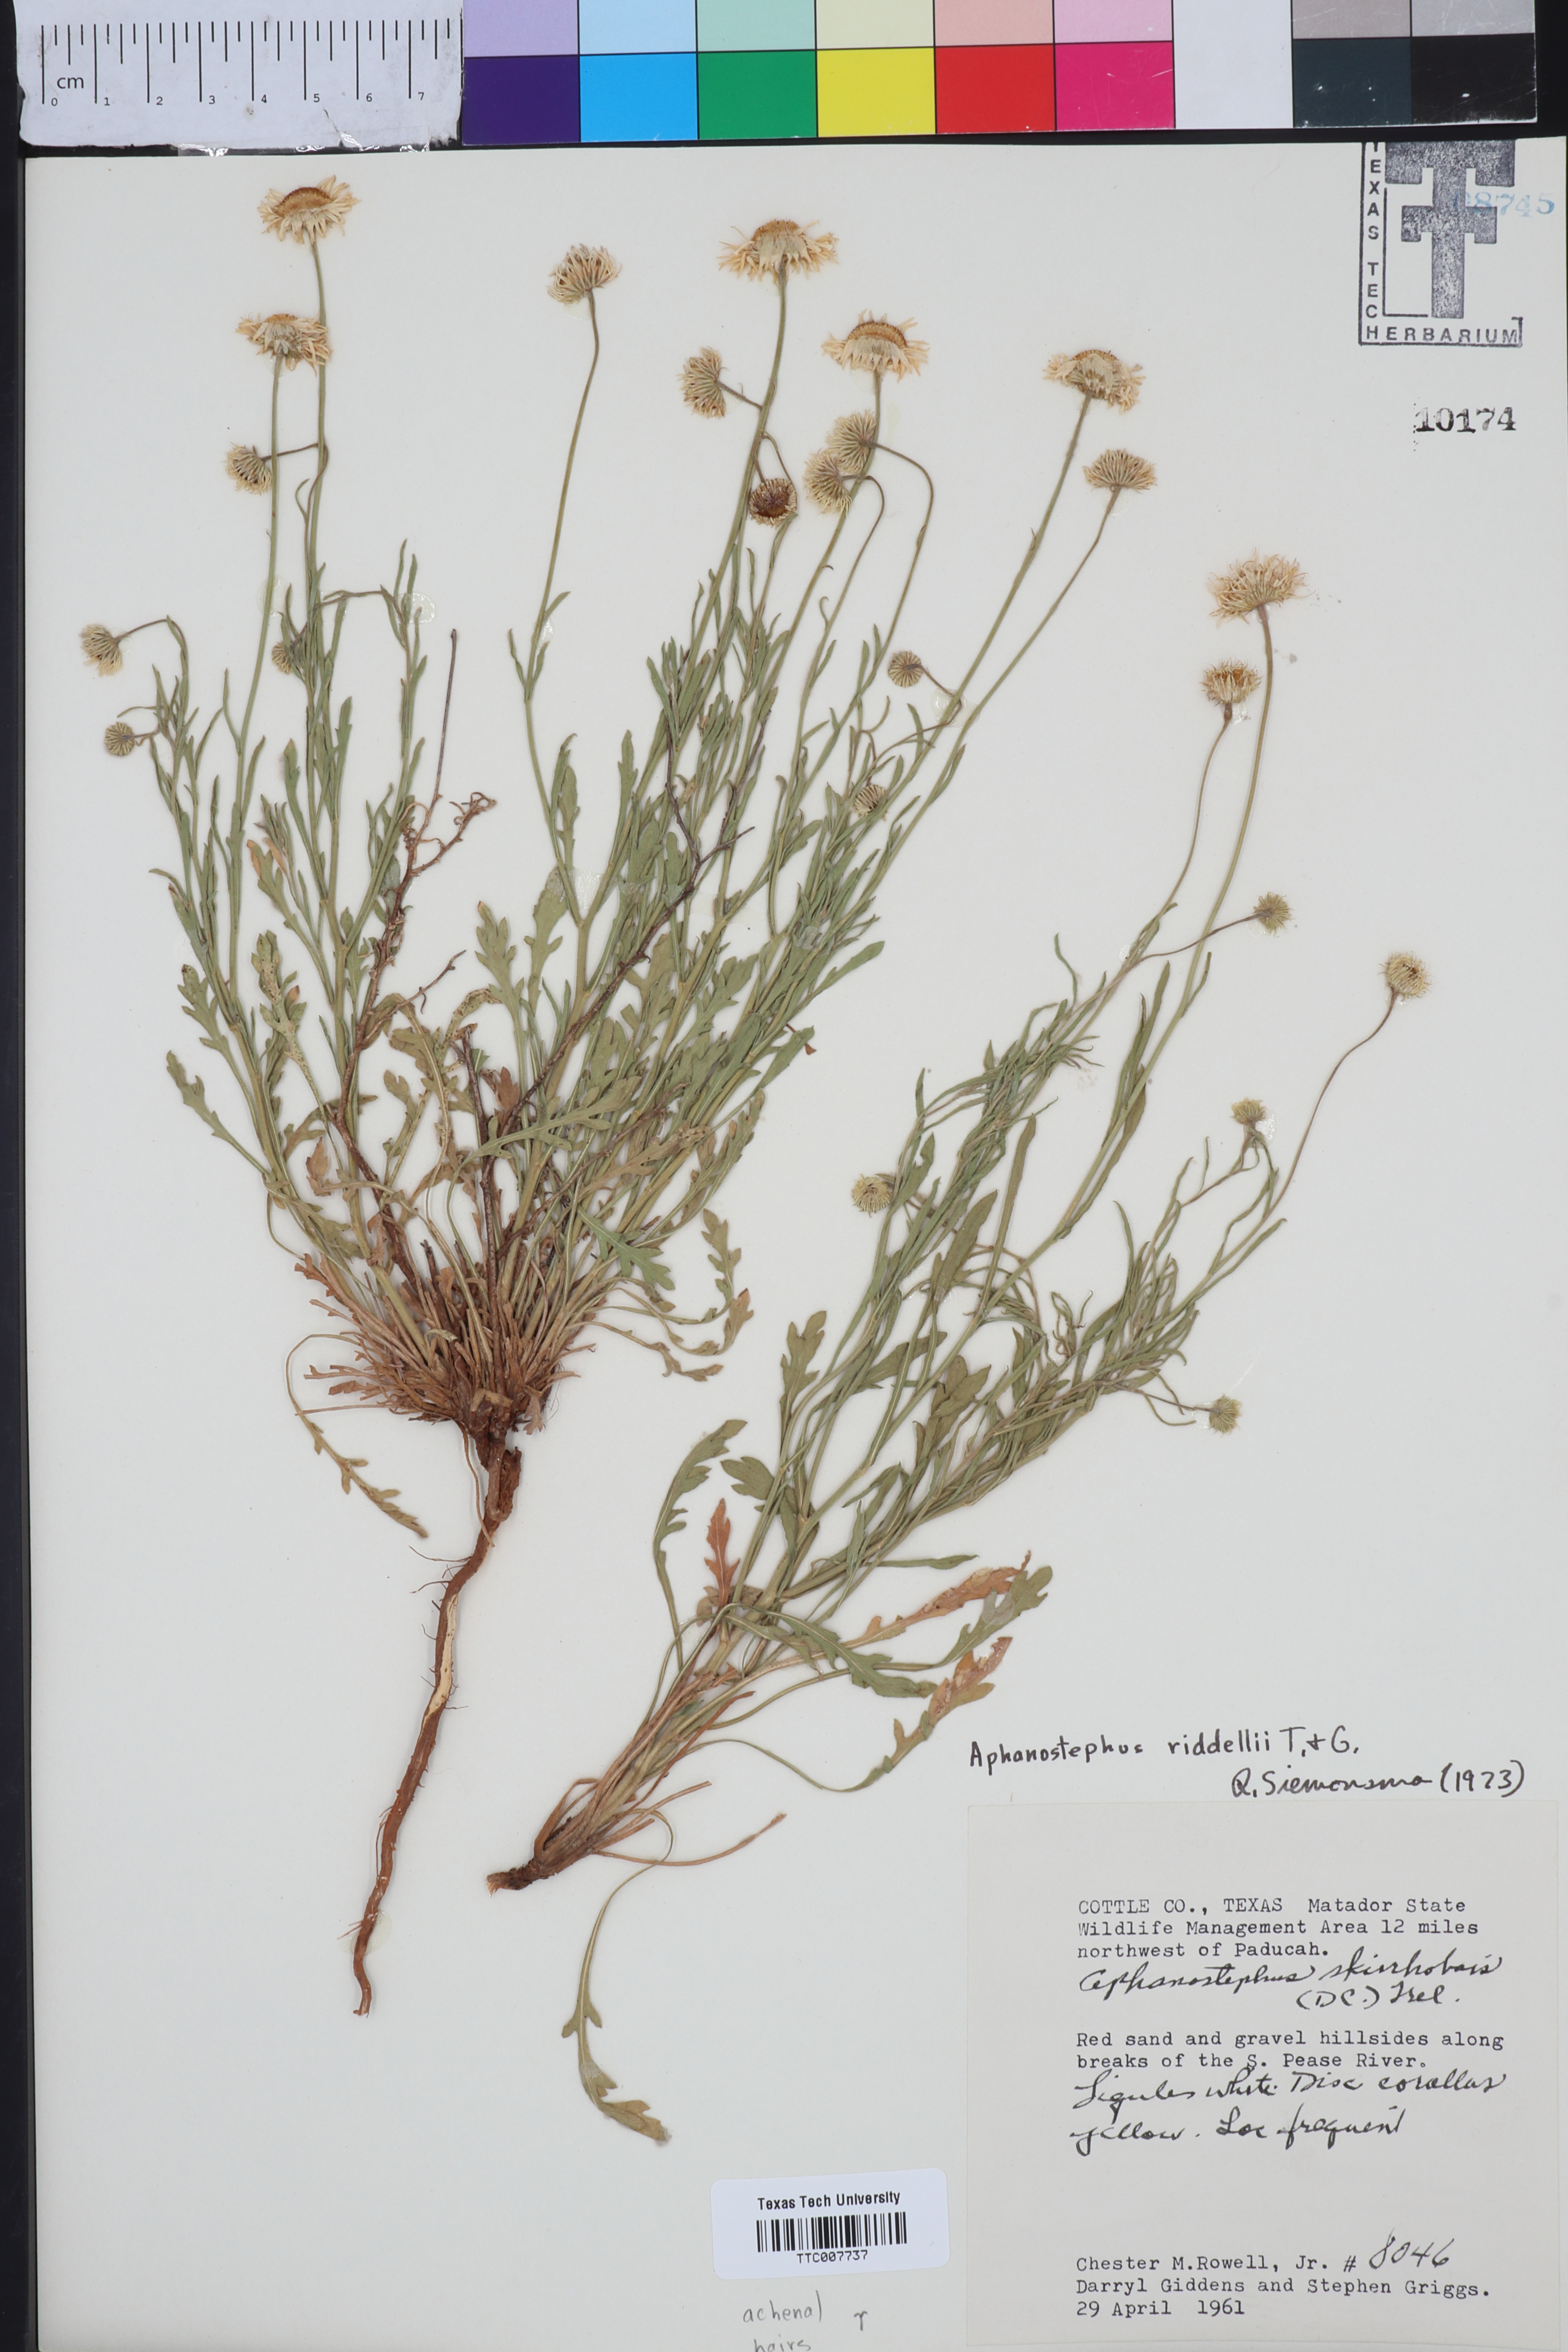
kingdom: Plantae
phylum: Tracheophyta
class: Magnoliopsida
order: Asterales
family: Asteraceae
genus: Aphanostephus
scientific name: Aphanostephus riddellii
